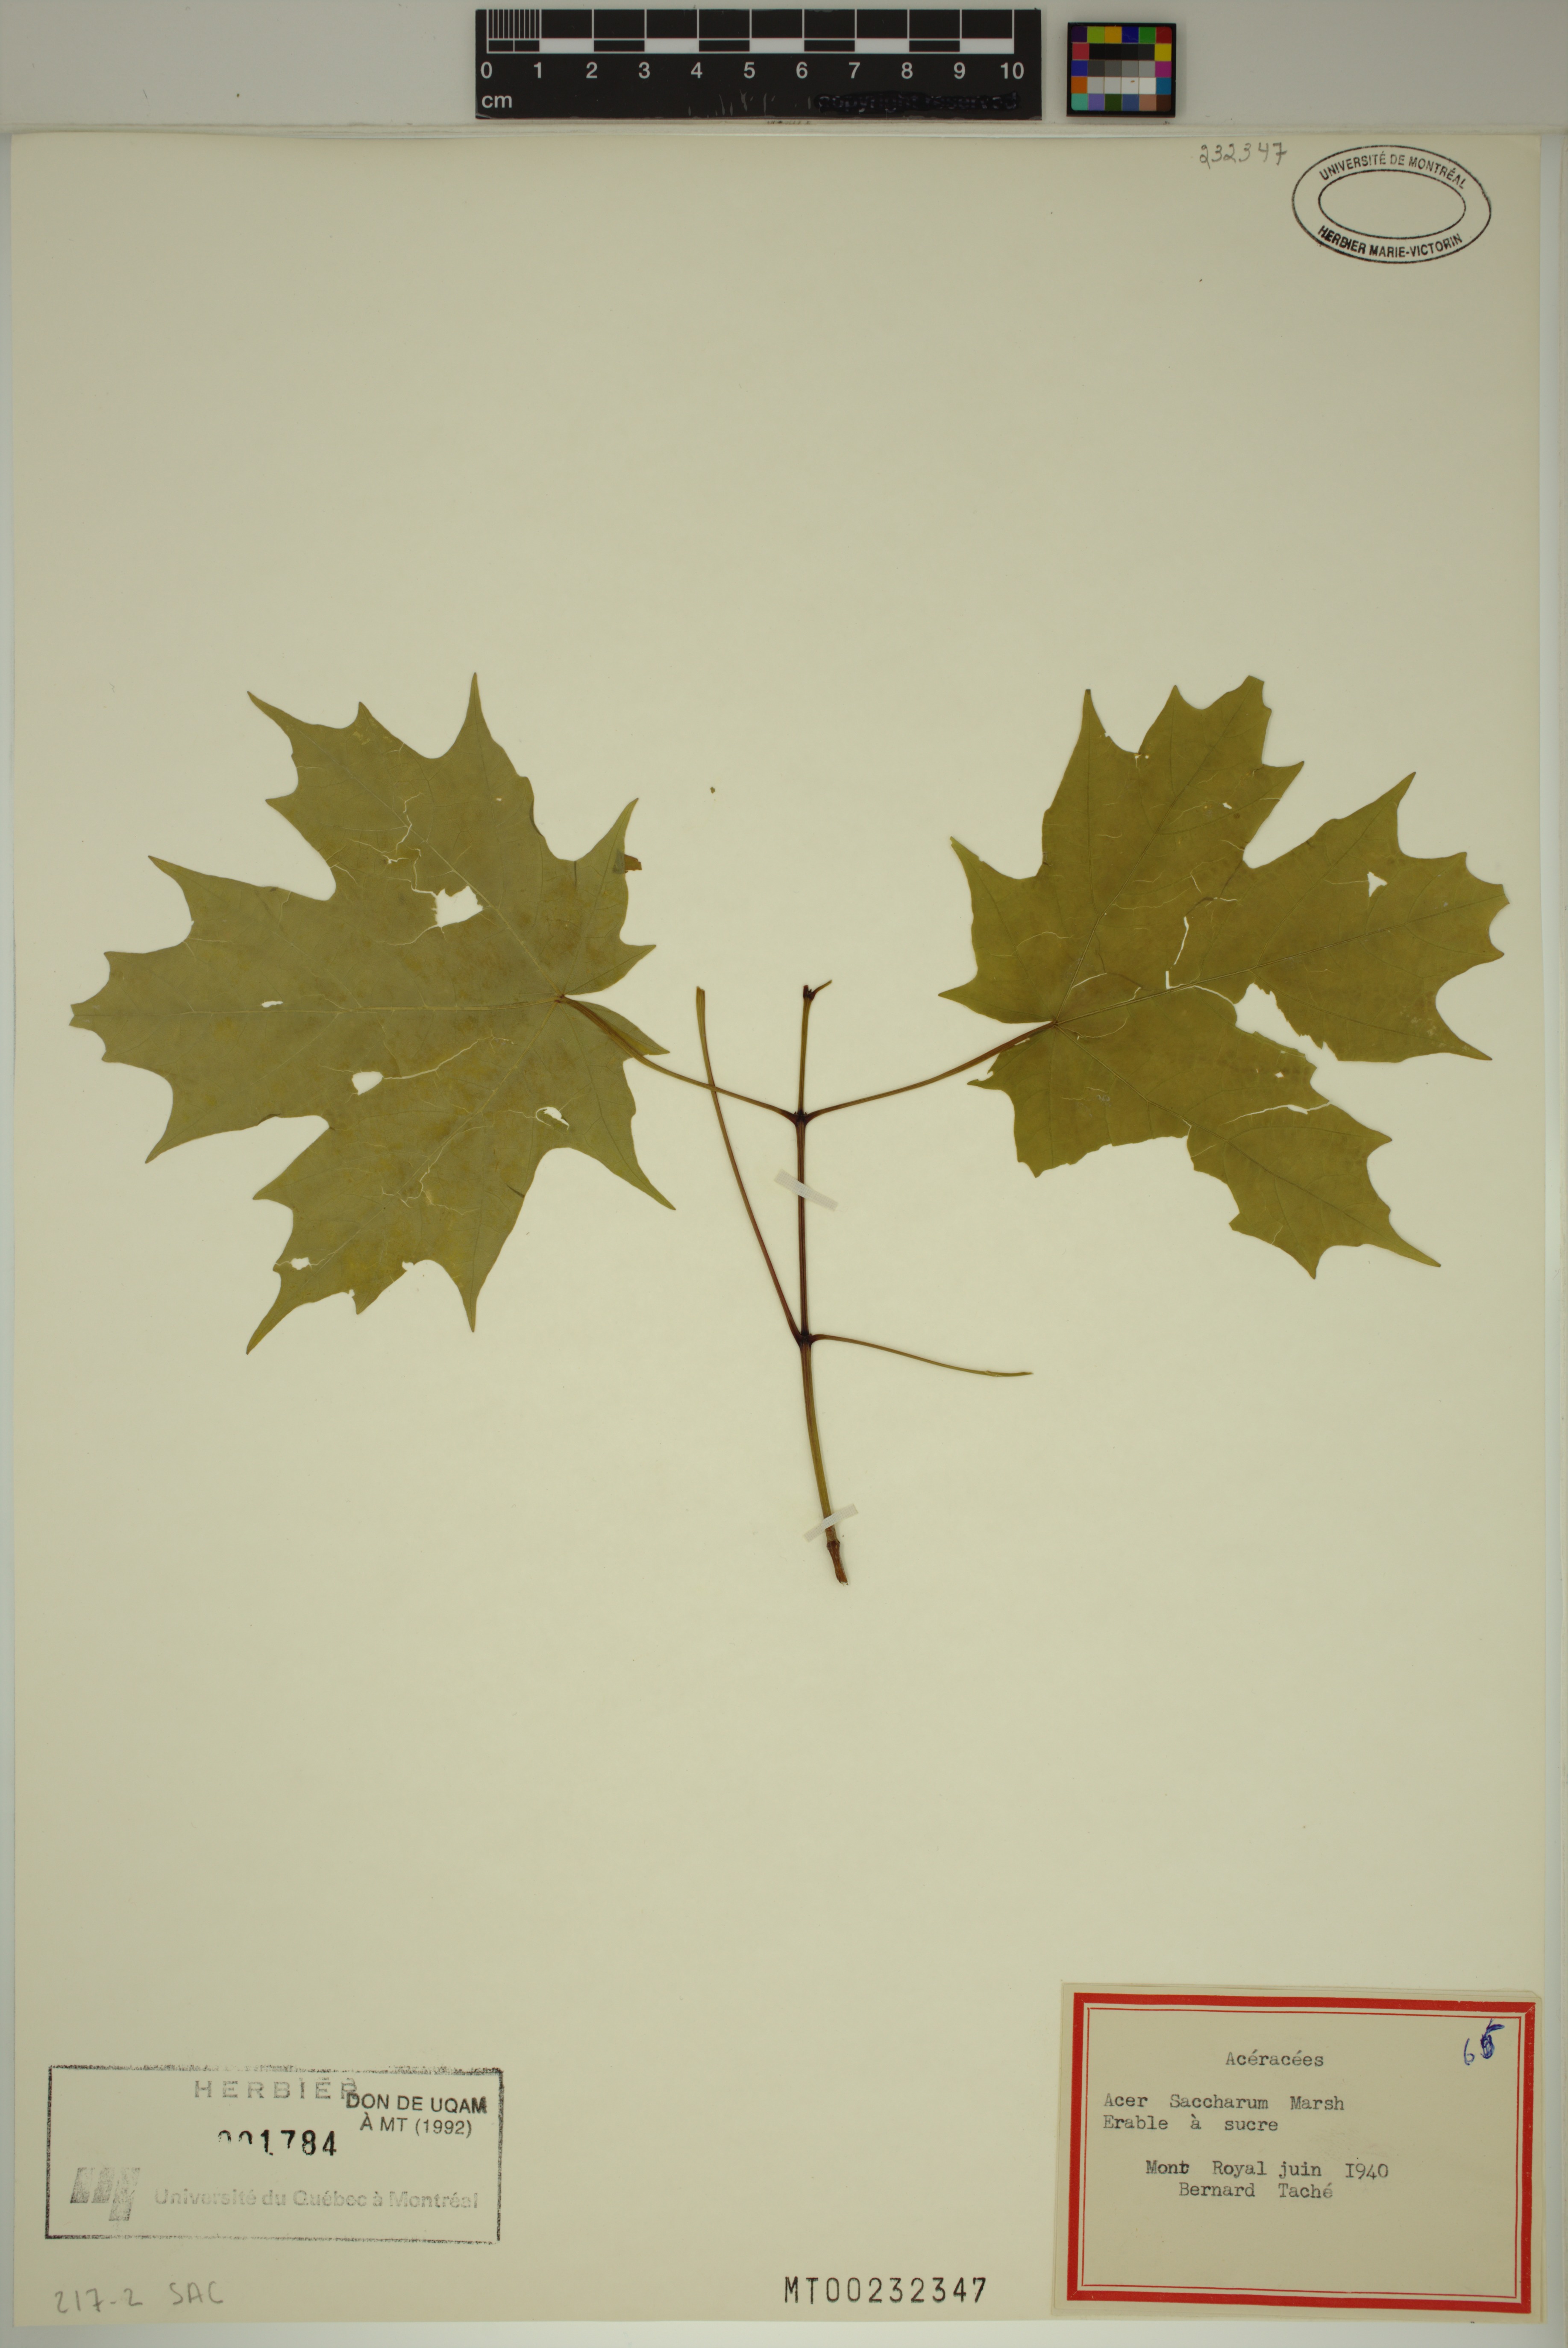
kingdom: Plantae
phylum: Tracheophyta
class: Magnoliopsida
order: Sapindales
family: Sapindaceae
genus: Acer
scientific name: Acer saccharum
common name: Sugar maple
